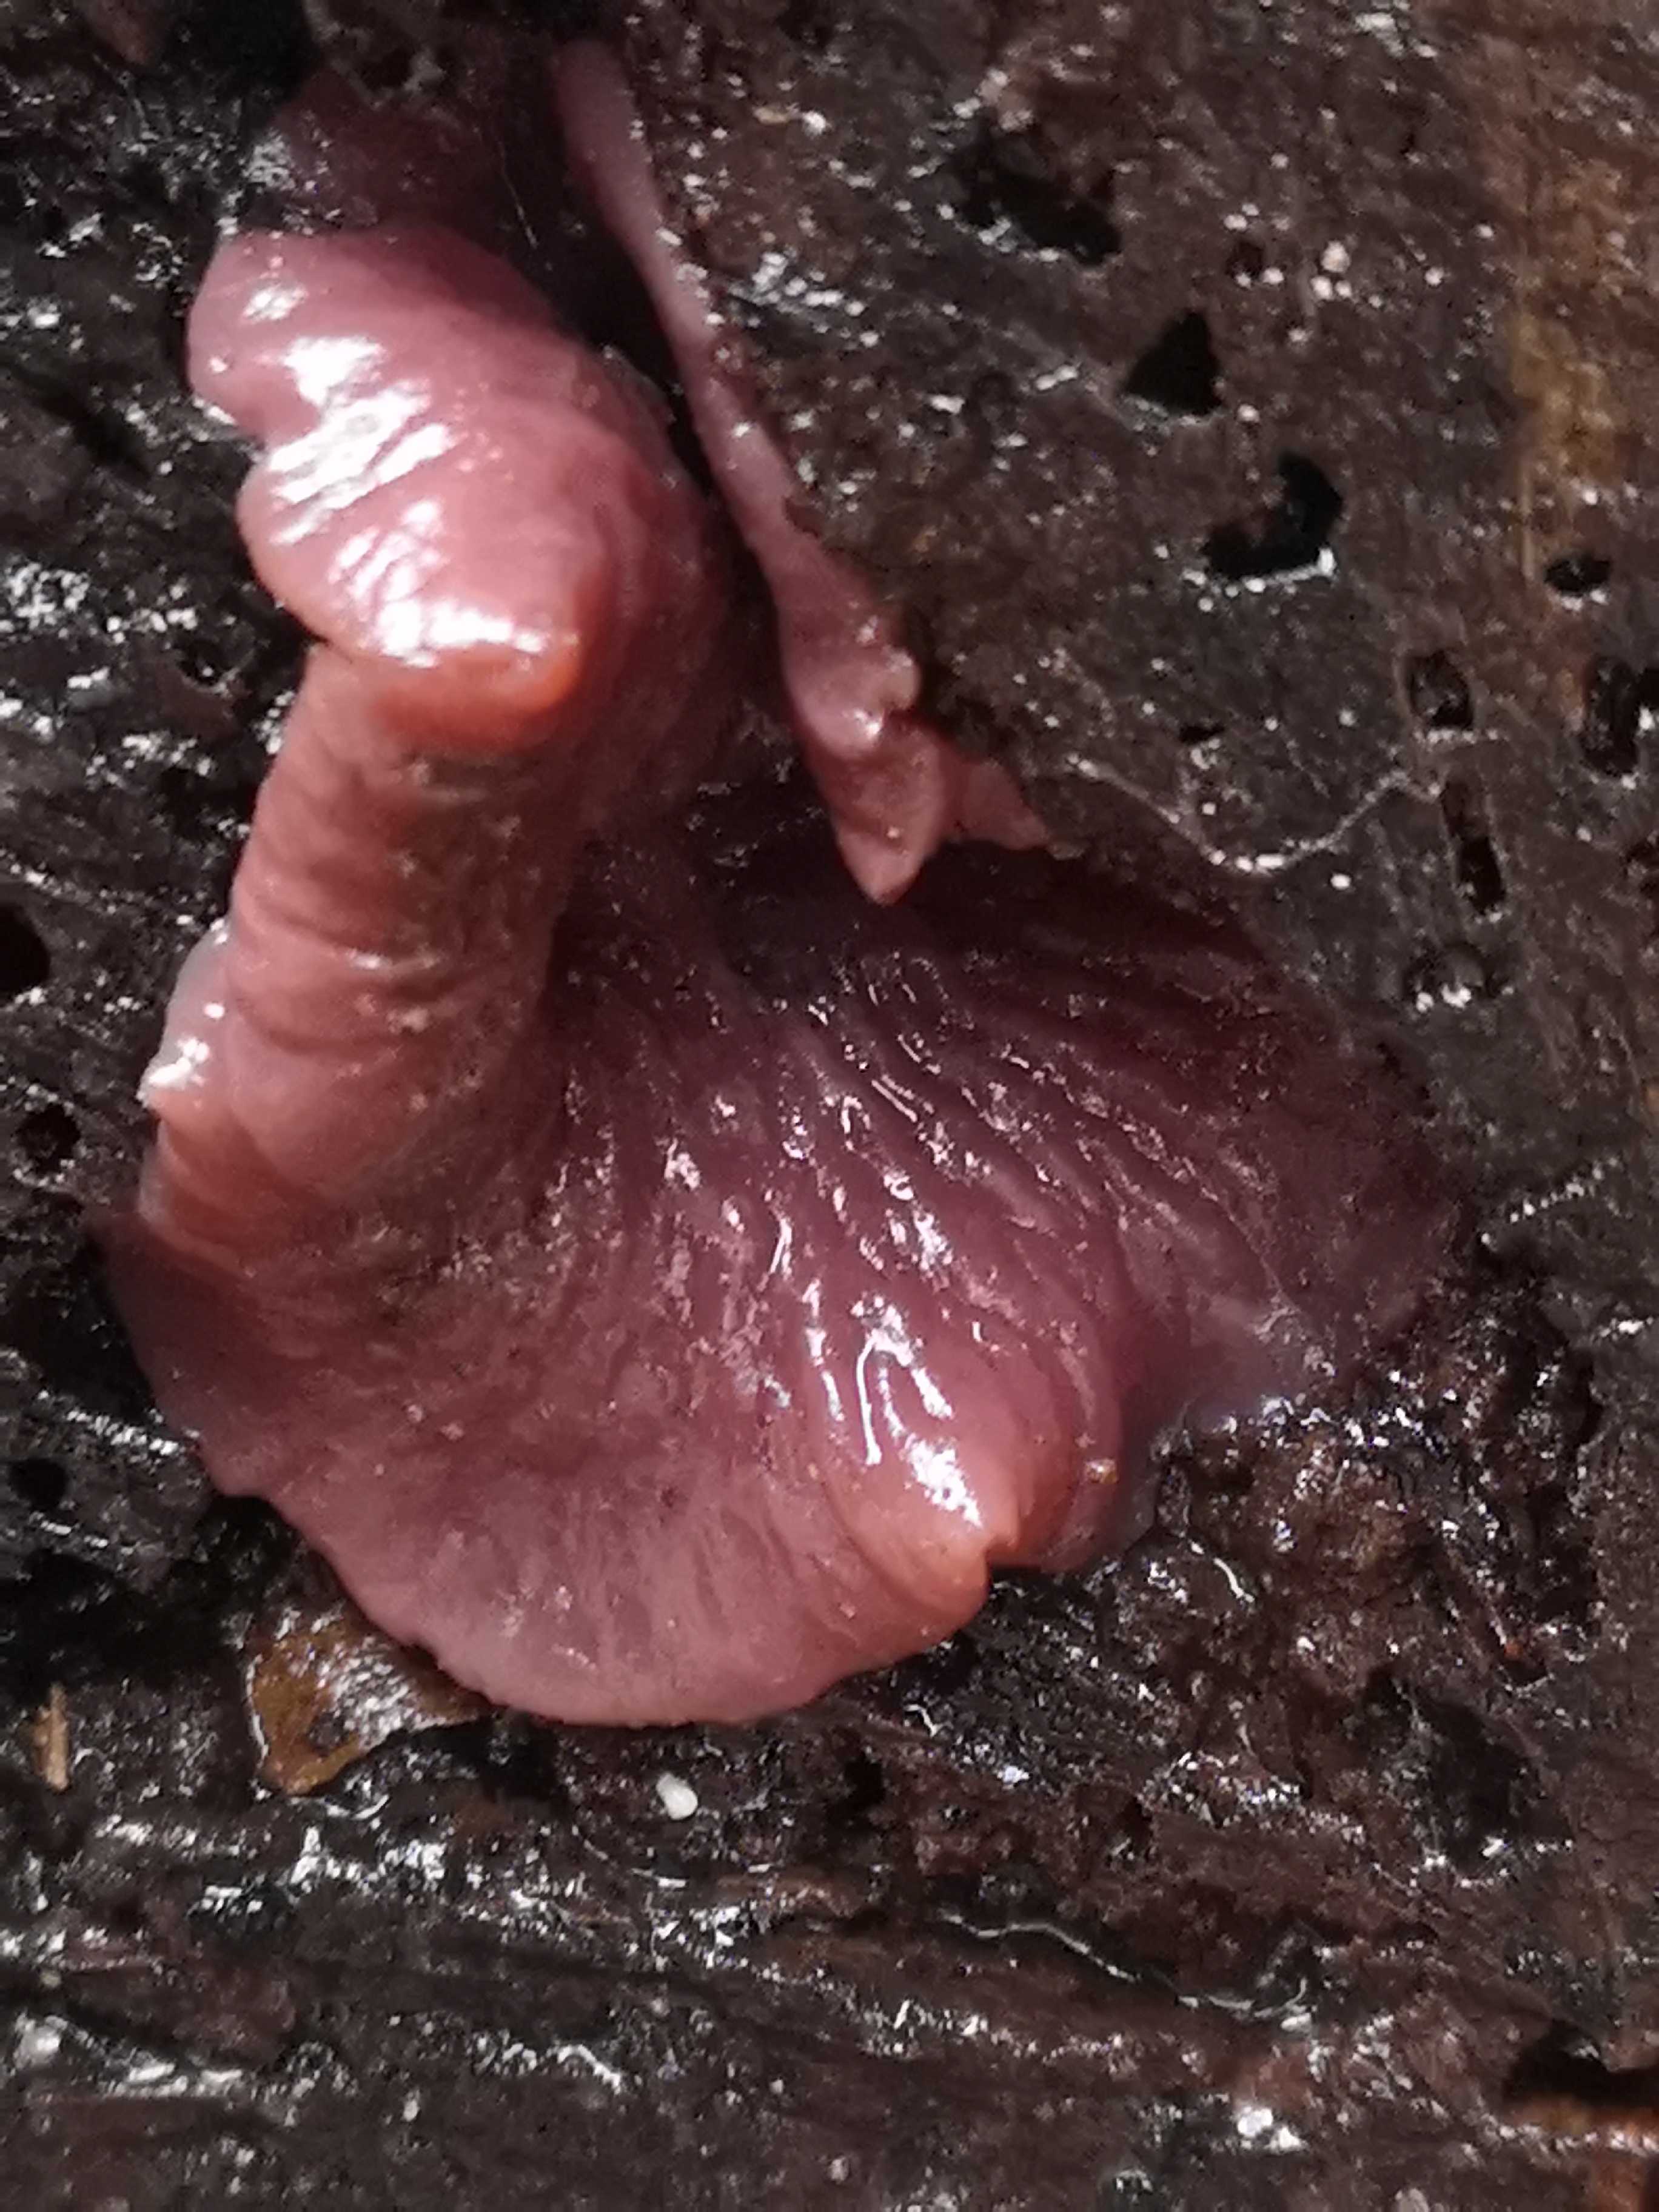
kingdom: Fungi
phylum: Ascomycota
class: Leotiomycetes
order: Helotiales
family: Gelatinodiscaceae
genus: Ascocoryne
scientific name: Ascocoryne cylichnium
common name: stor sejskive
